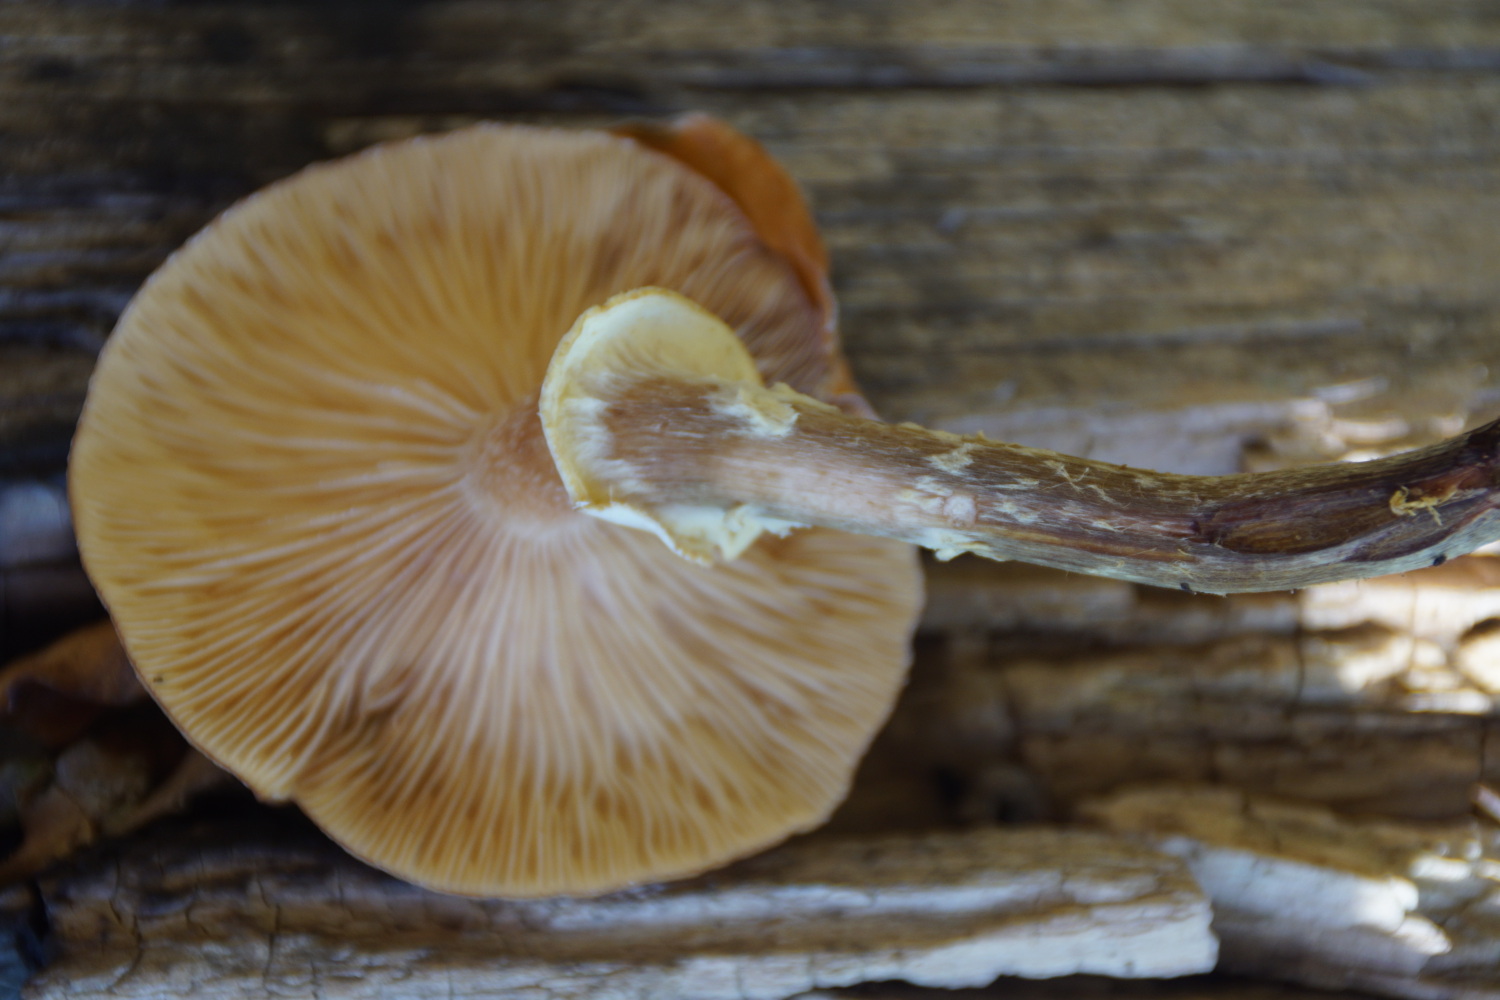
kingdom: Fungi
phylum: Basidiomycota
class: Agaricomycetes
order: Agaricales
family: Physalacriaceae
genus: Armillaria
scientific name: Armillaria mellea
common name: ægte honningsvamp
